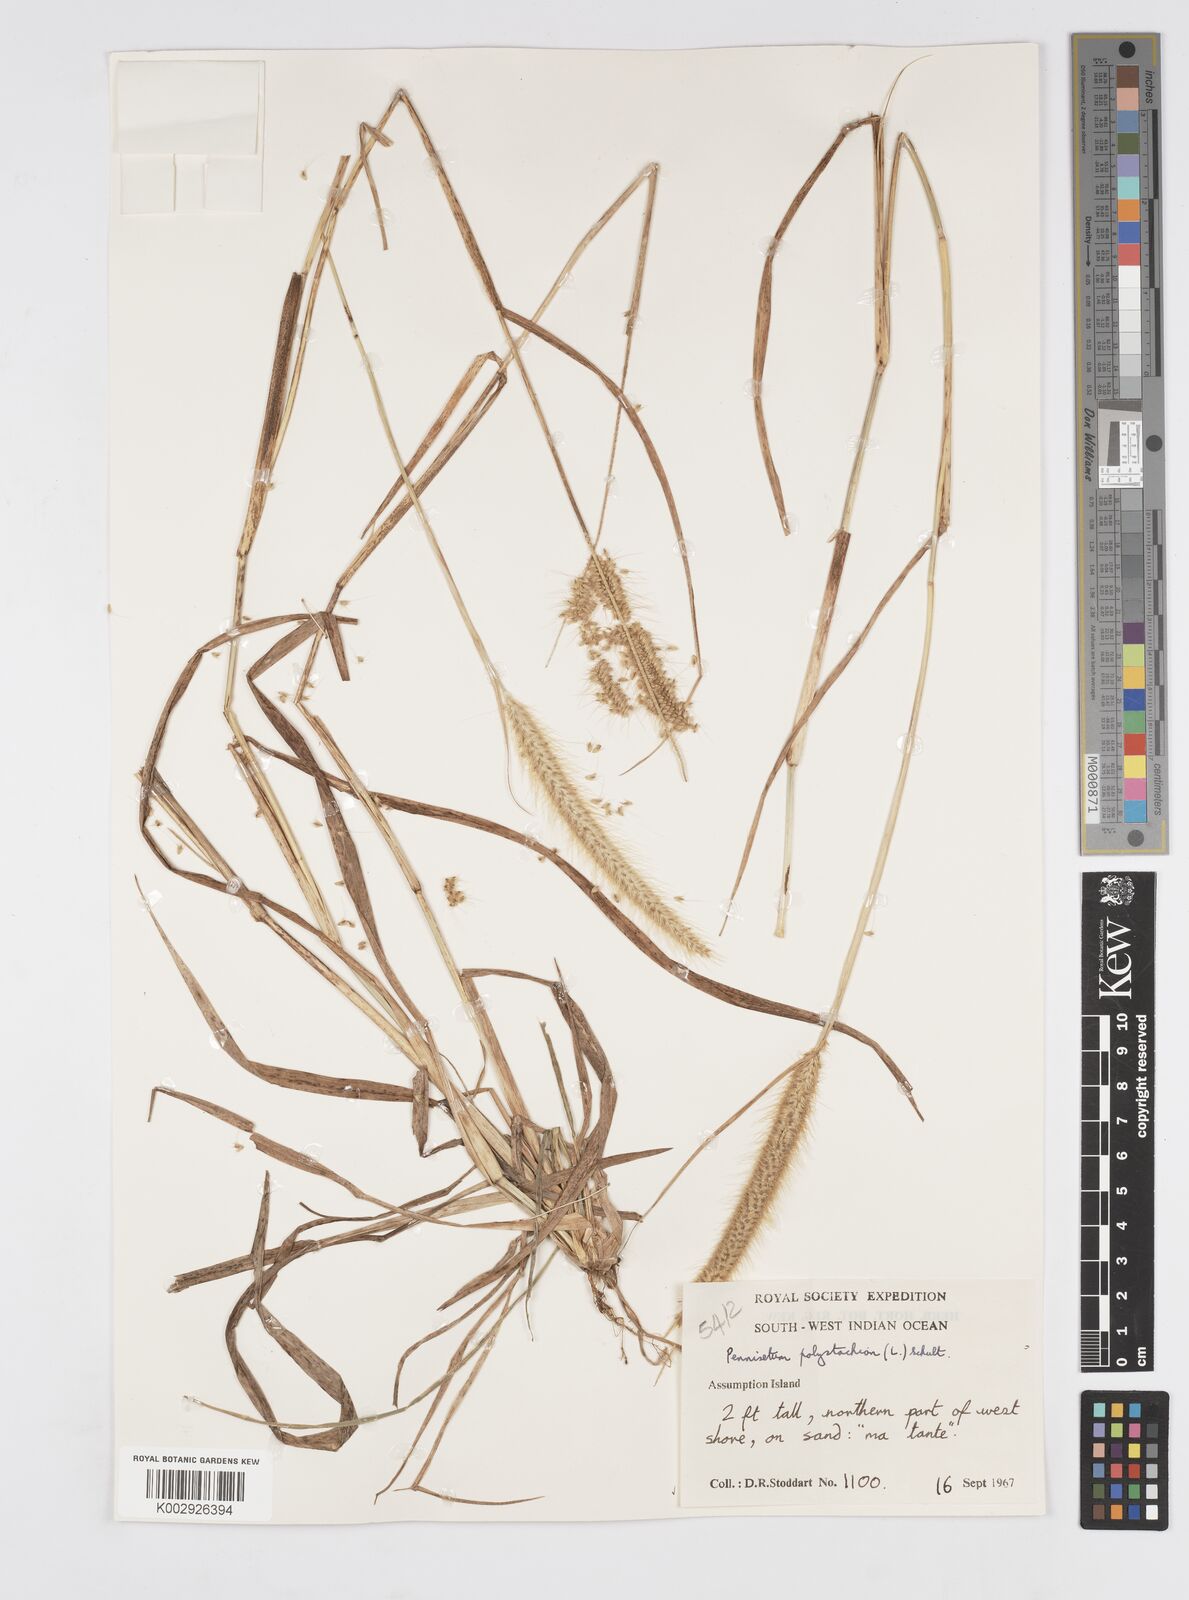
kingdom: Plantae
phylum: Tracheophyta
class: Liliopsida
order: Poales
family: Poaceae
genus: Setaria
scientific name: Setaria parviflora
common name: Knotroot bristle-grass
